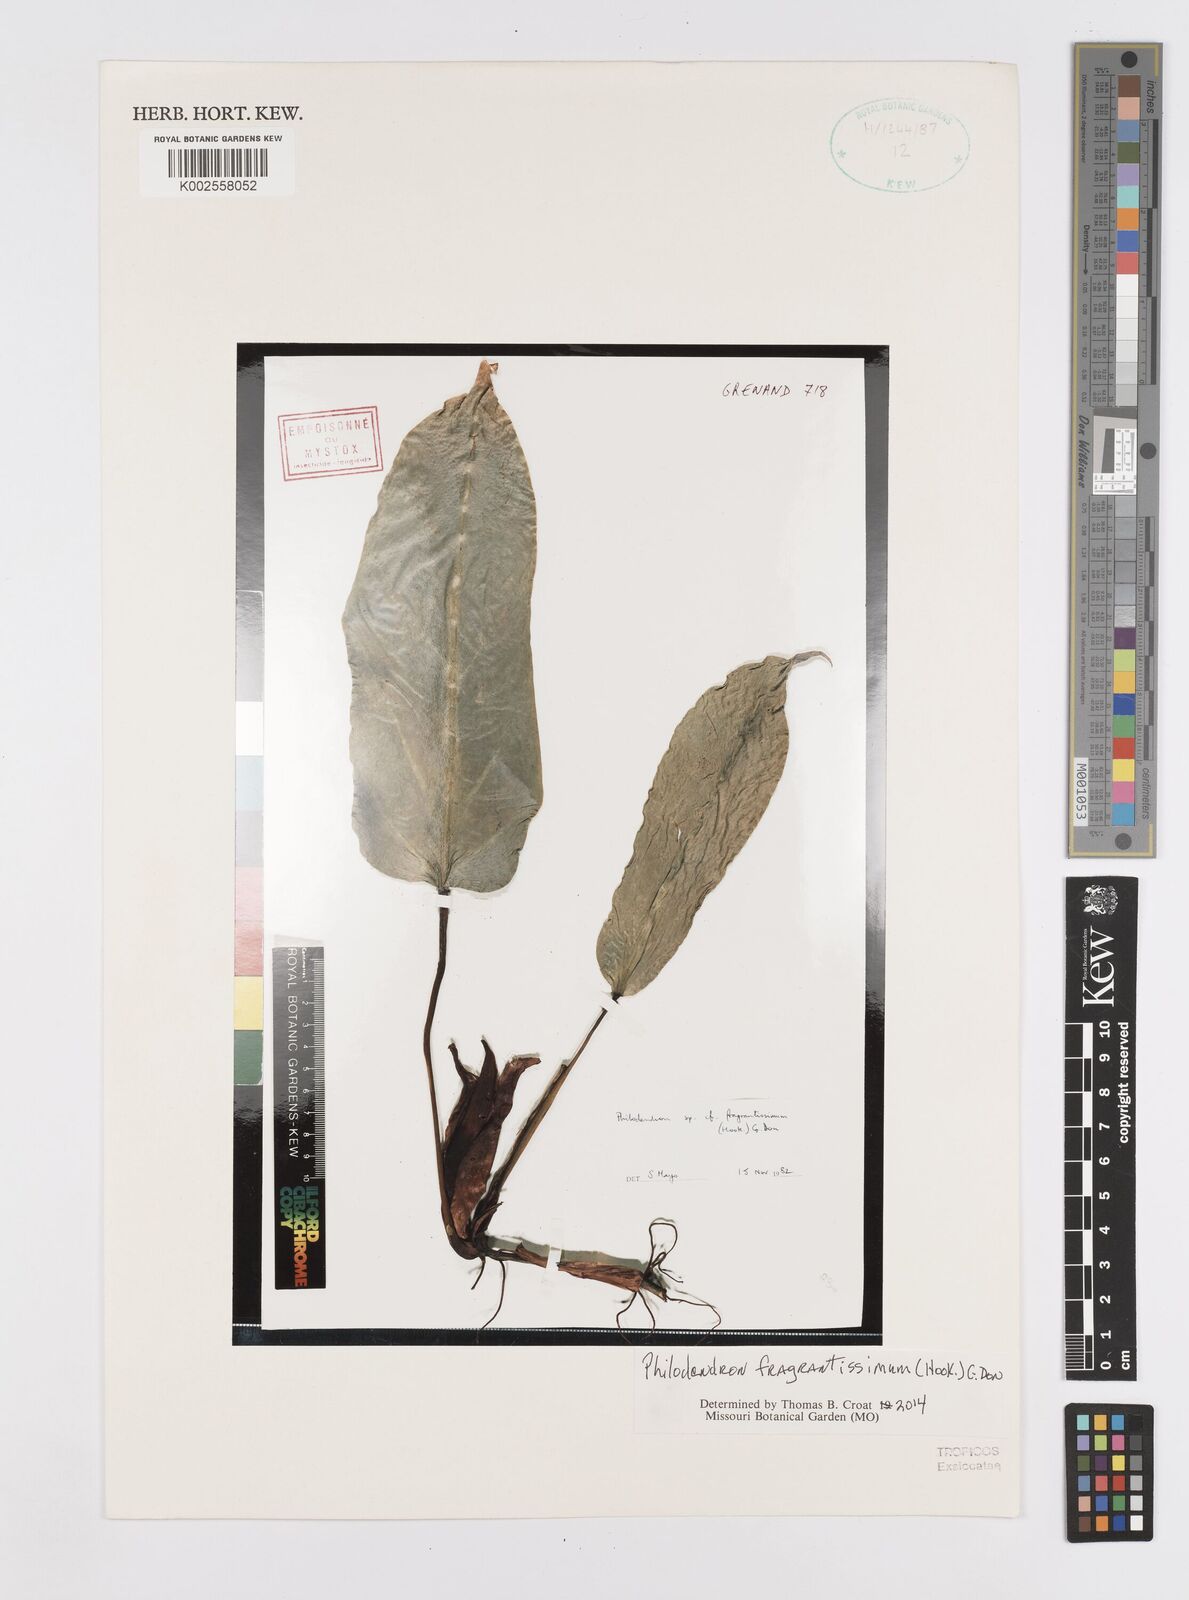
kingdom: Plantae
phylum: Tracheophyta
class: Liliopsida
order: Alismatales
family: Araceae
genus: Philodendron
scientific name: Philodendron fragrantissimum
